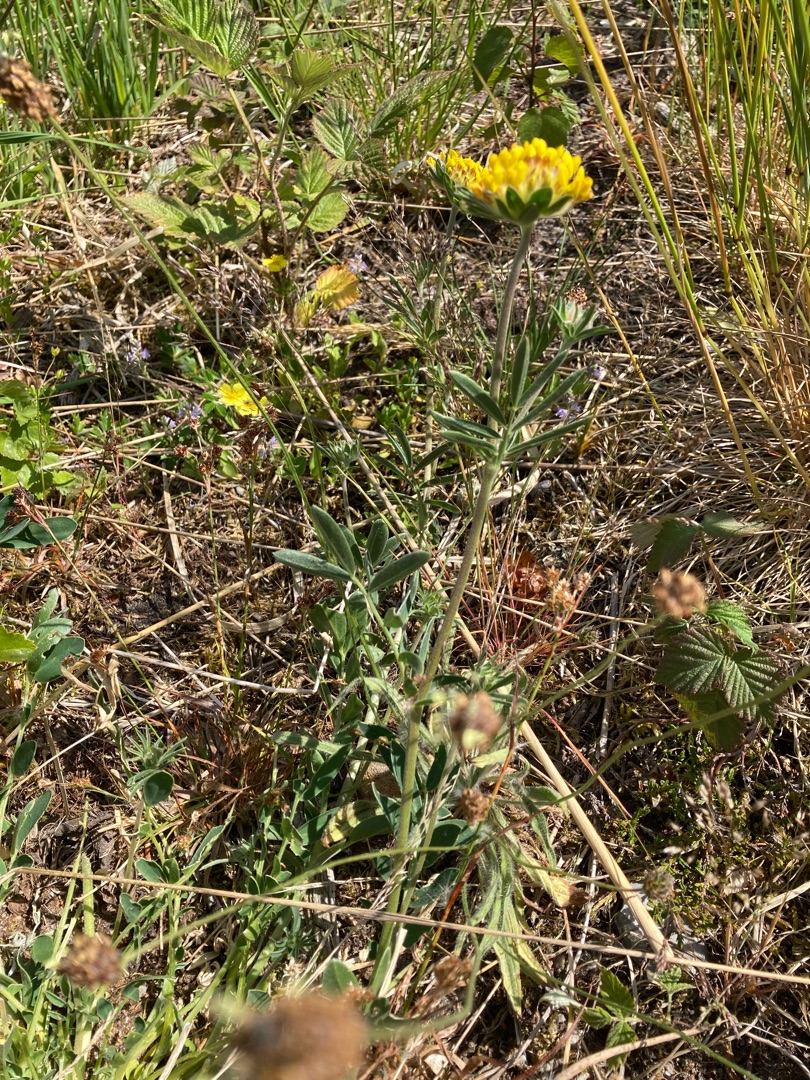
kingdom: Plantae
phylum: Tracheophyta
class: Magnoliopsida
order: Fabales
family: Fabaceae
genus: Anthyllis
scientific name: Anthyllis vulneraria
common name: Rundbælg
